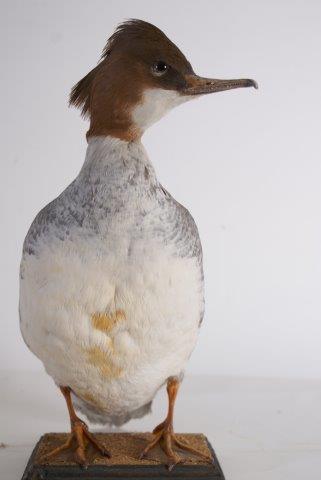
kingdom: Animalia
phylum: Chordata
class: Aves
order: Anseriformes
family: Anatidae
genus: Mergus
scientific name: Mergus merganser
